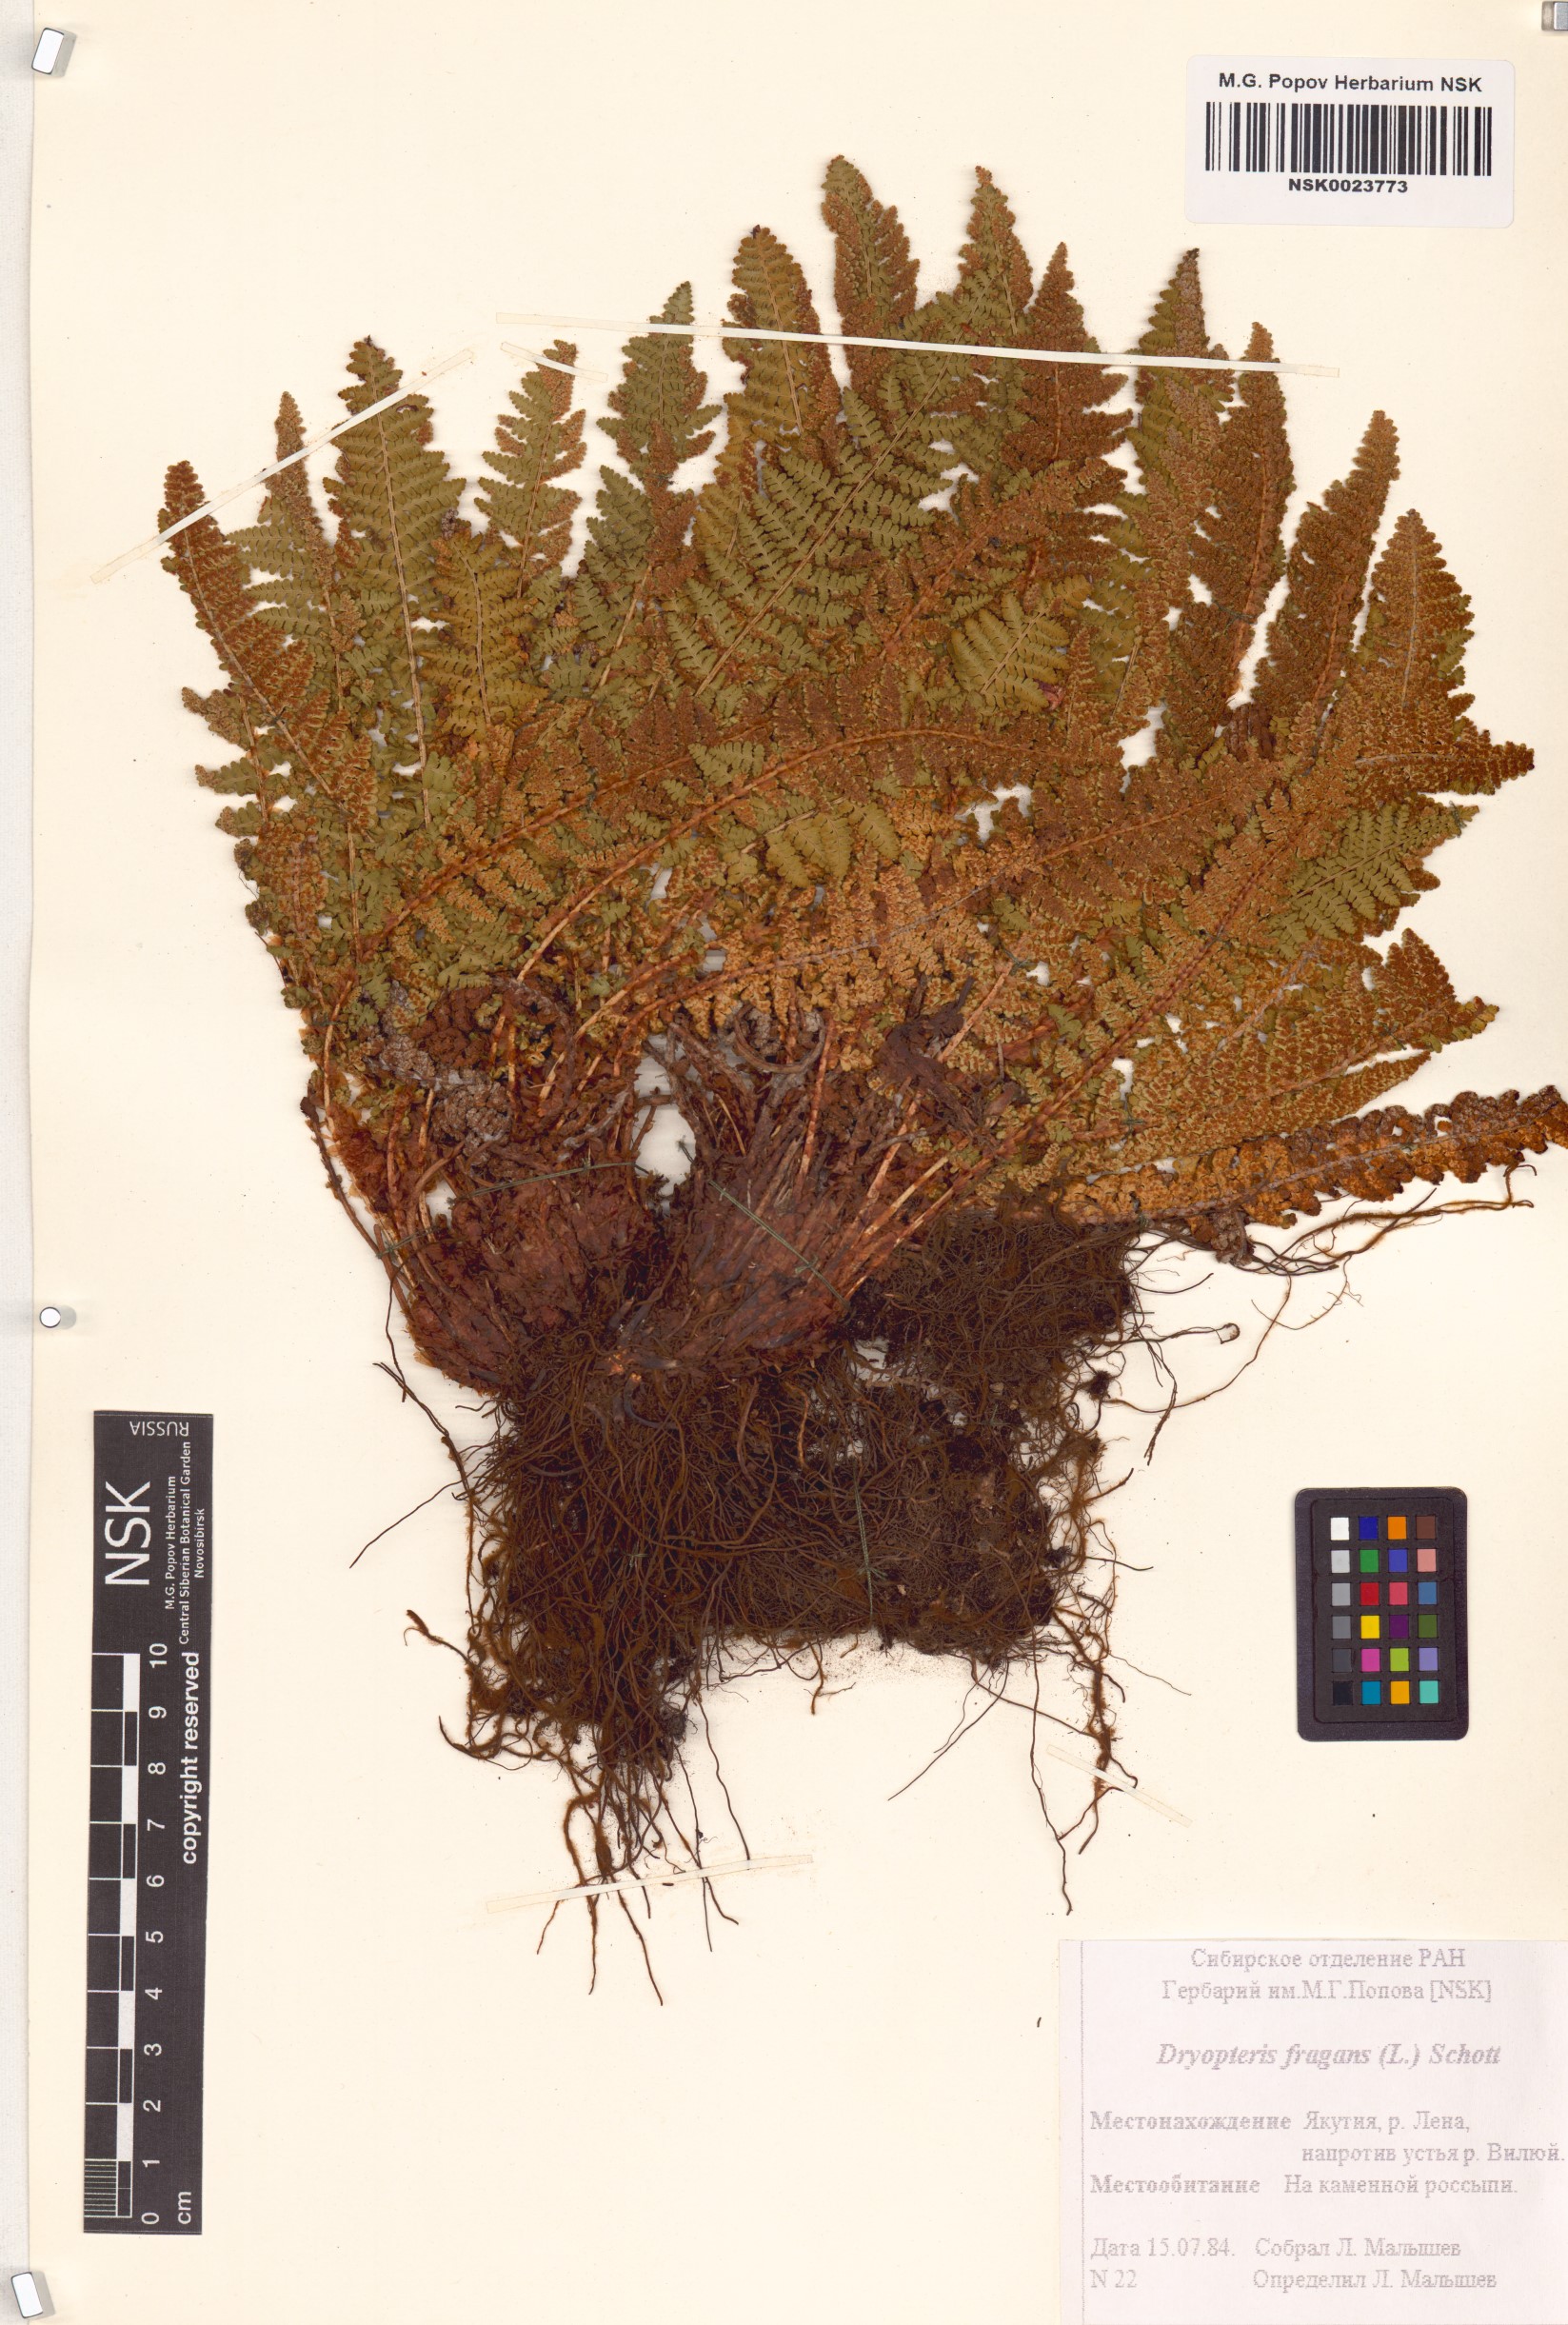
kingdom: Plantae
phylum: Tracheophyta
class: Polypodiopsida
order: Polypodiales
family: Dryopteridaceae
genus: Dryopteris
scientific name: Dryopteris fragrans
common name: Fragrant wood fern
